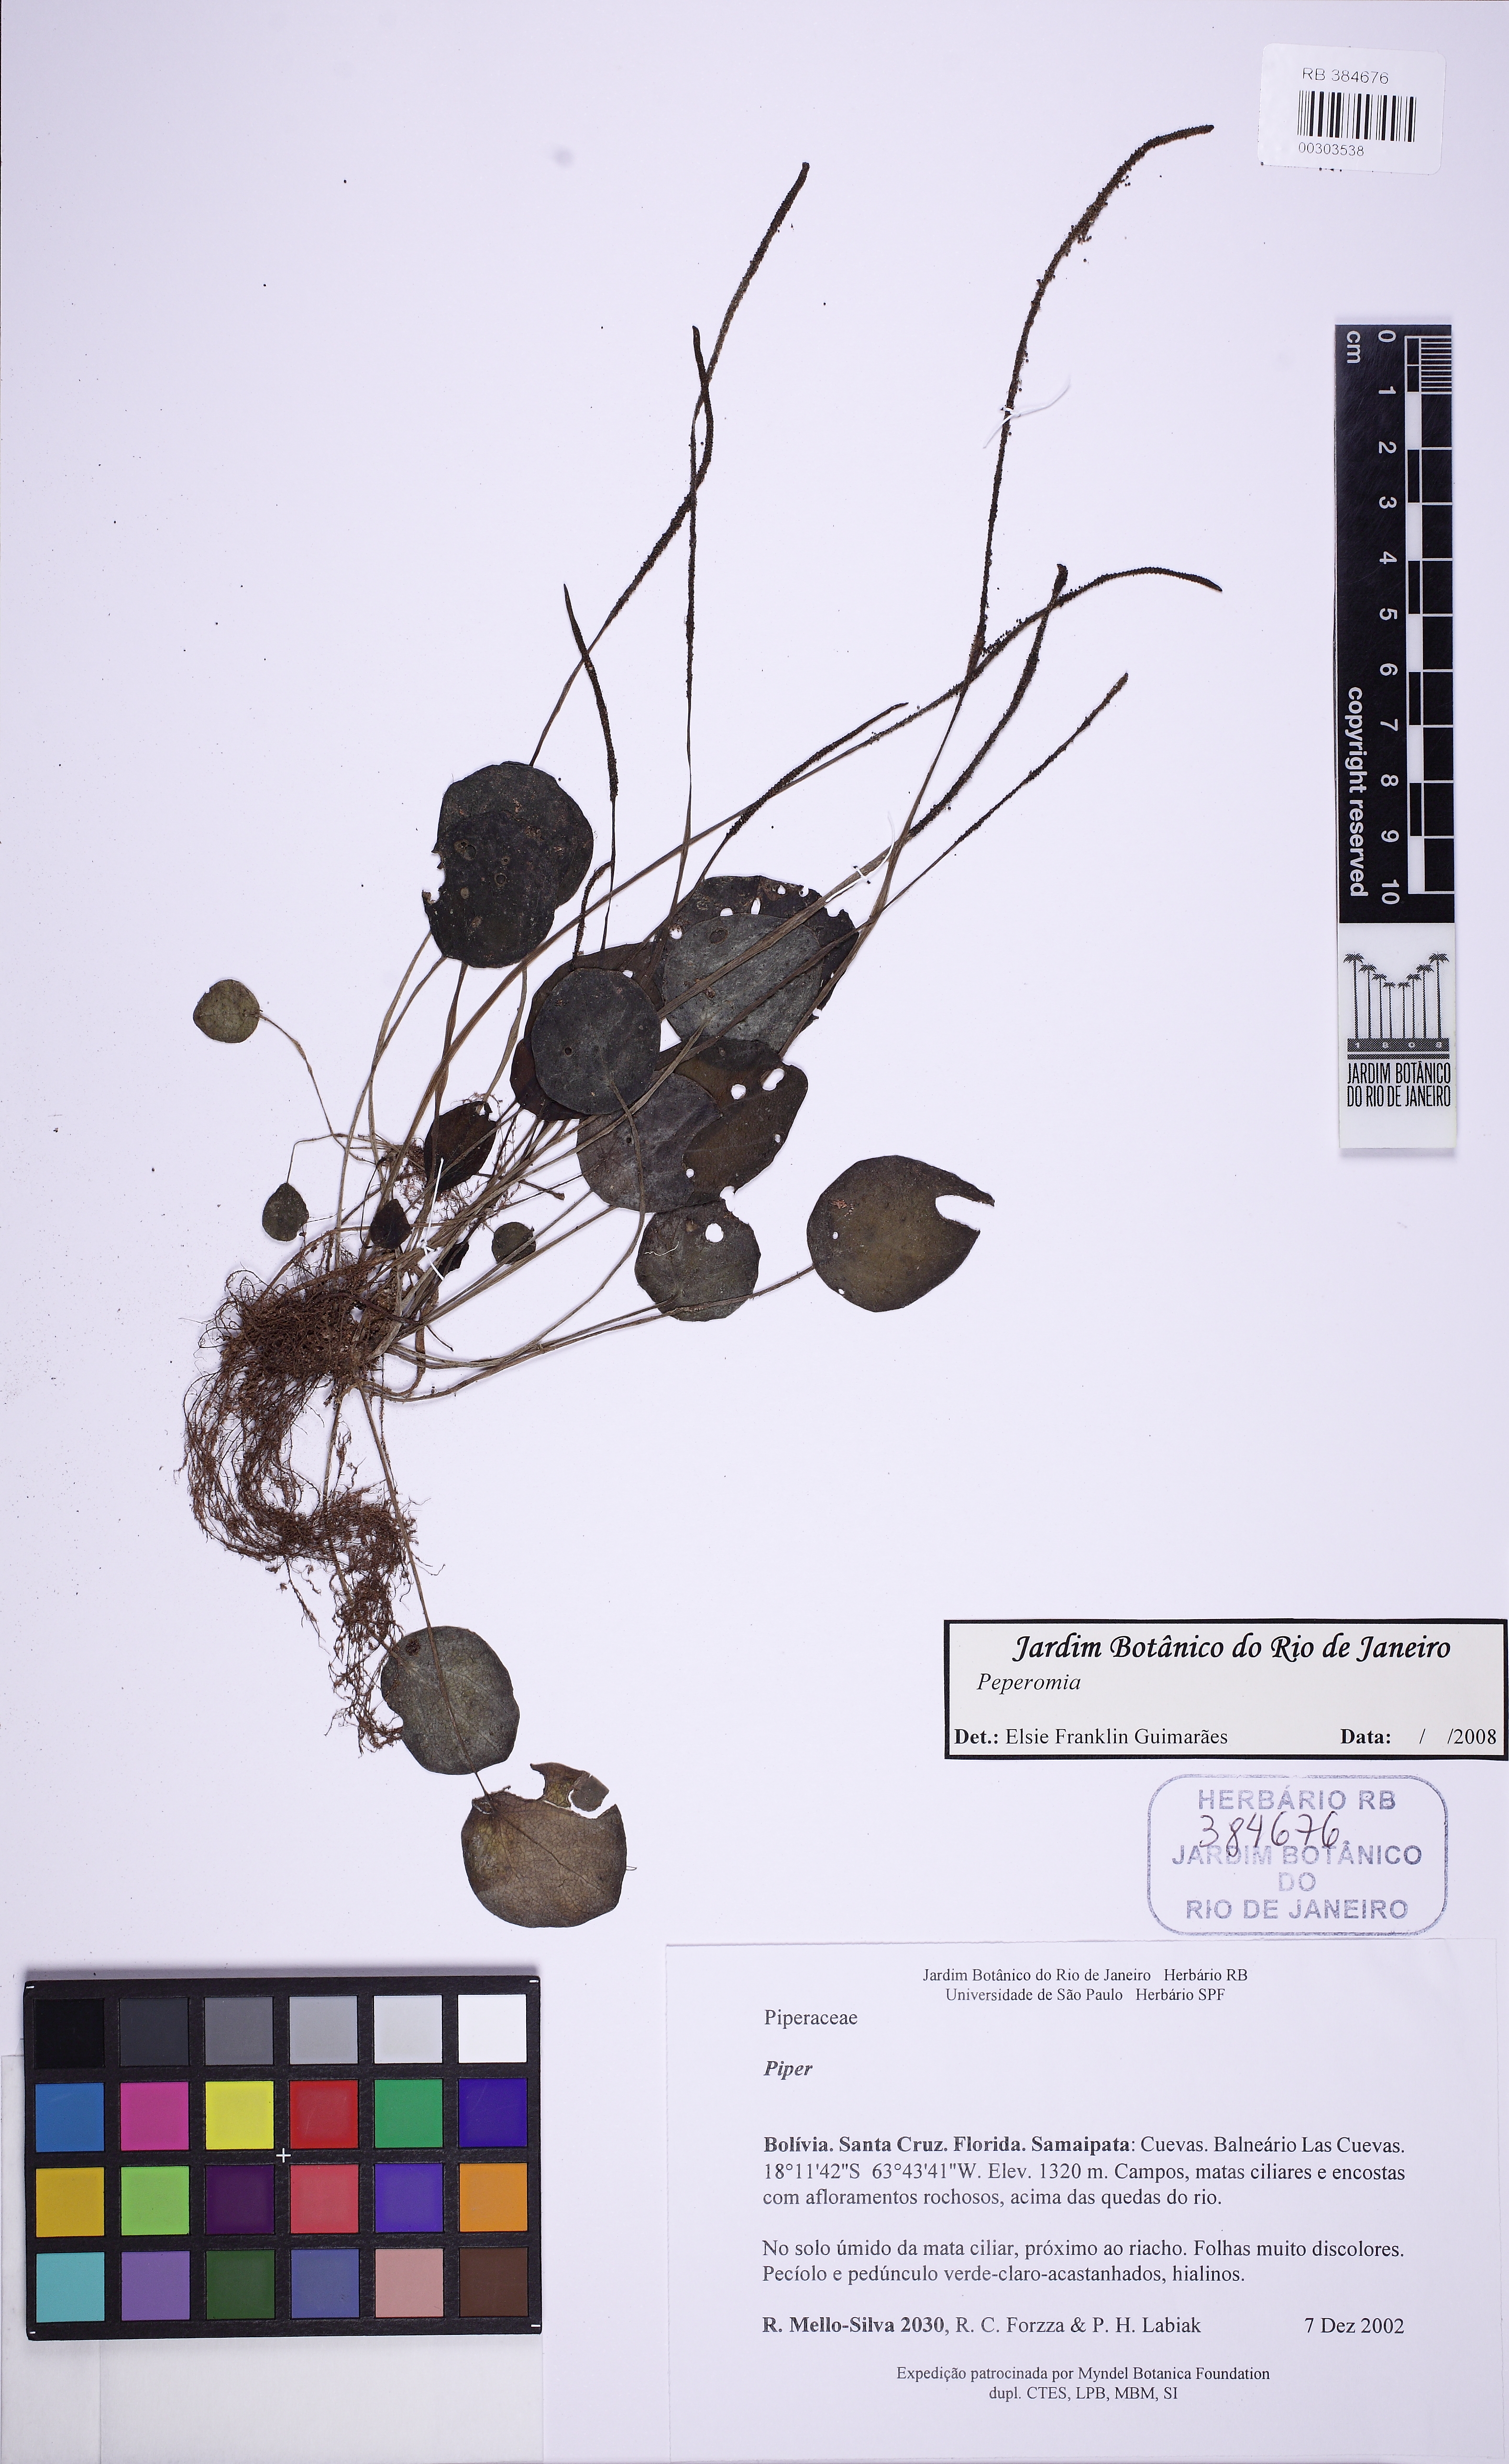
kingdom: Plantae
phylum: Tracheophyta
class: Magnoliopsida
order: Piperales
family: Piperaceae
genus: Peperomia
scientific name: Peperomia pseudoumbilicata
